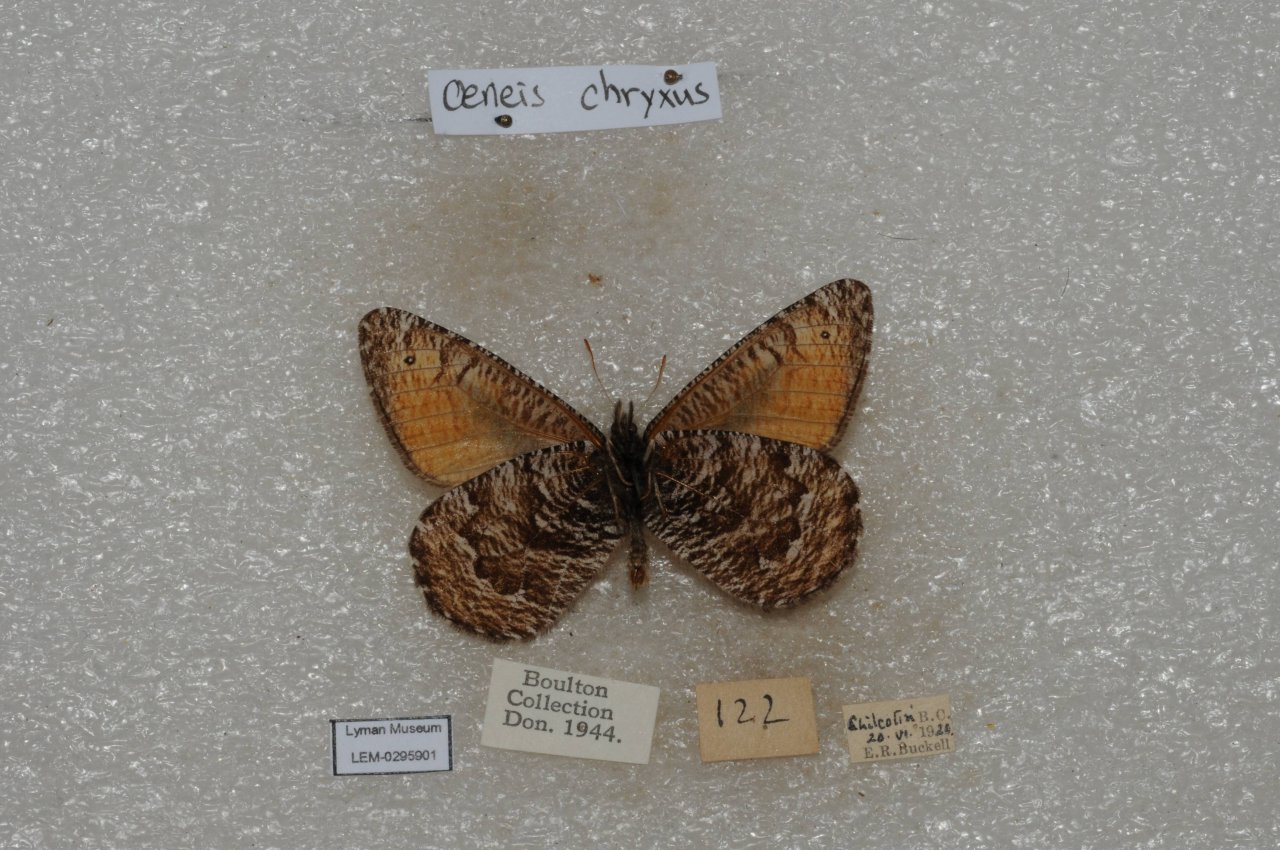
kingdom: Animalia
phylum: Arthropoda
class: Insecta
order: Lepidoptera
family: Nymphalidae
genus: Oeneis
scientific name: Oeneis chryxus
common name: Chryxus Arctic
